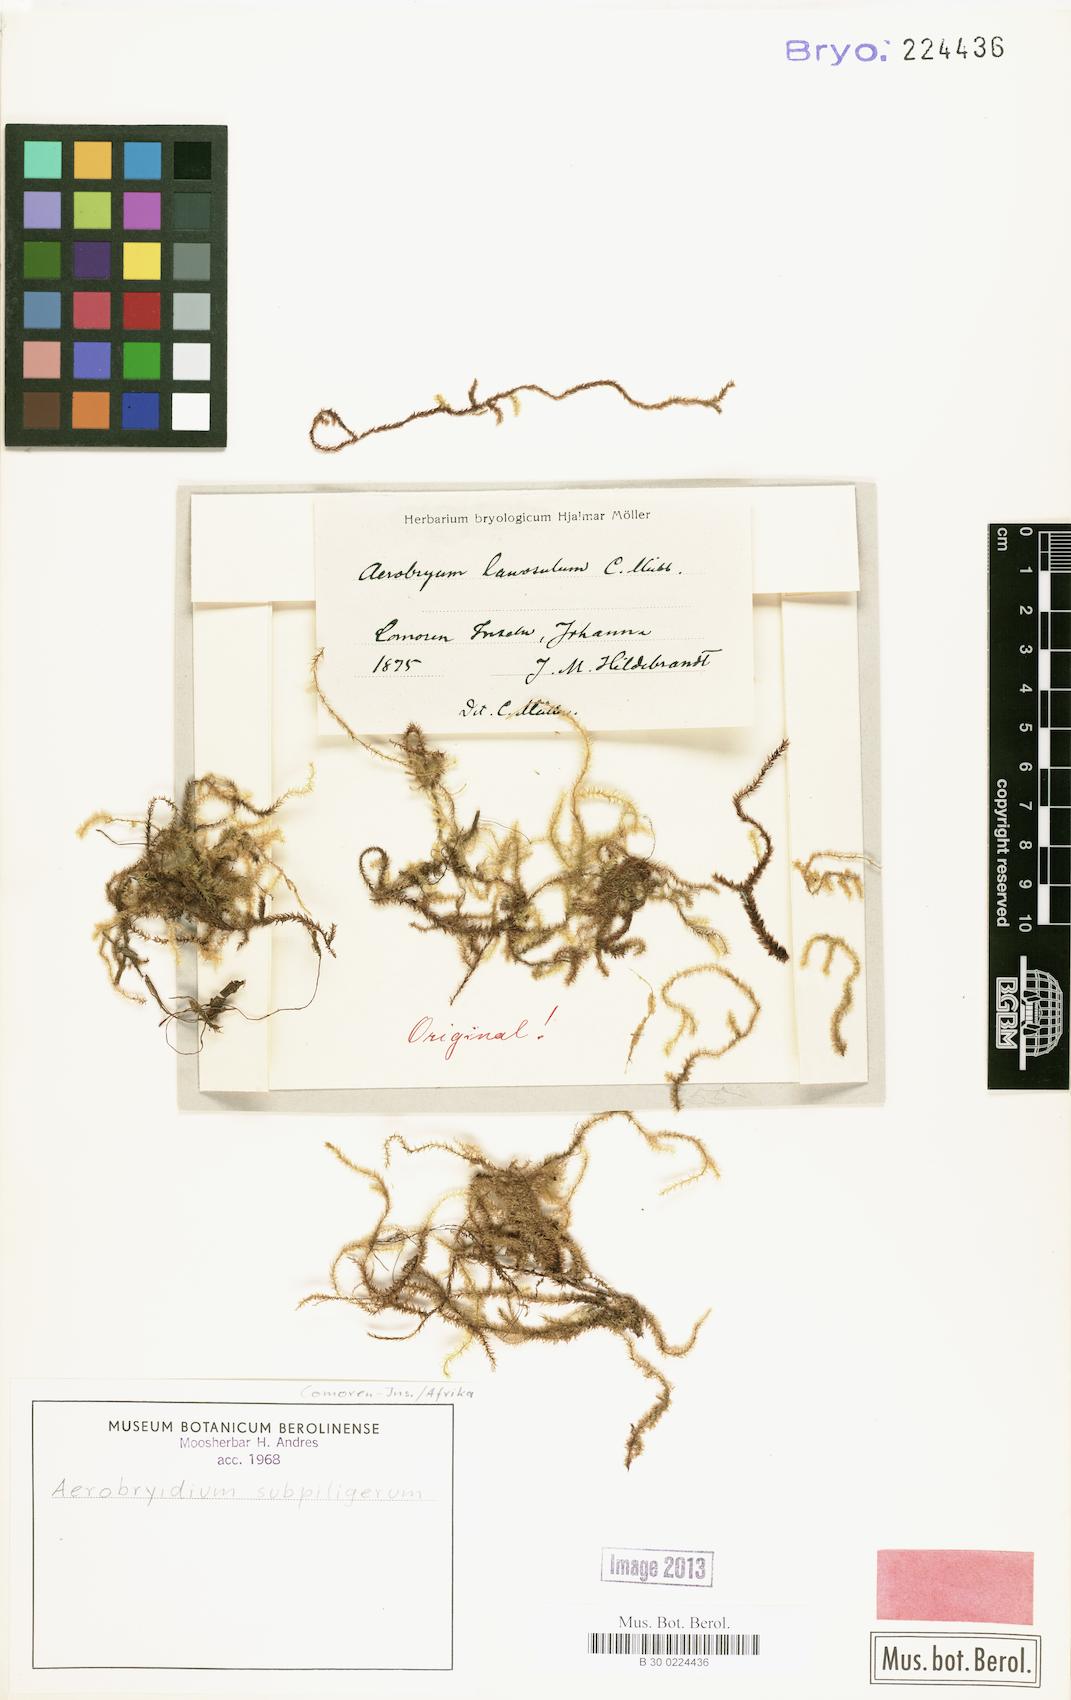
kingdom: Plantae
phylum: Bryophyta
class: Bryopsida
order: Hypnales
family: Meteoriaceae
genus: Aerobryopsis
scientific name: Aerobryopsis capensis
